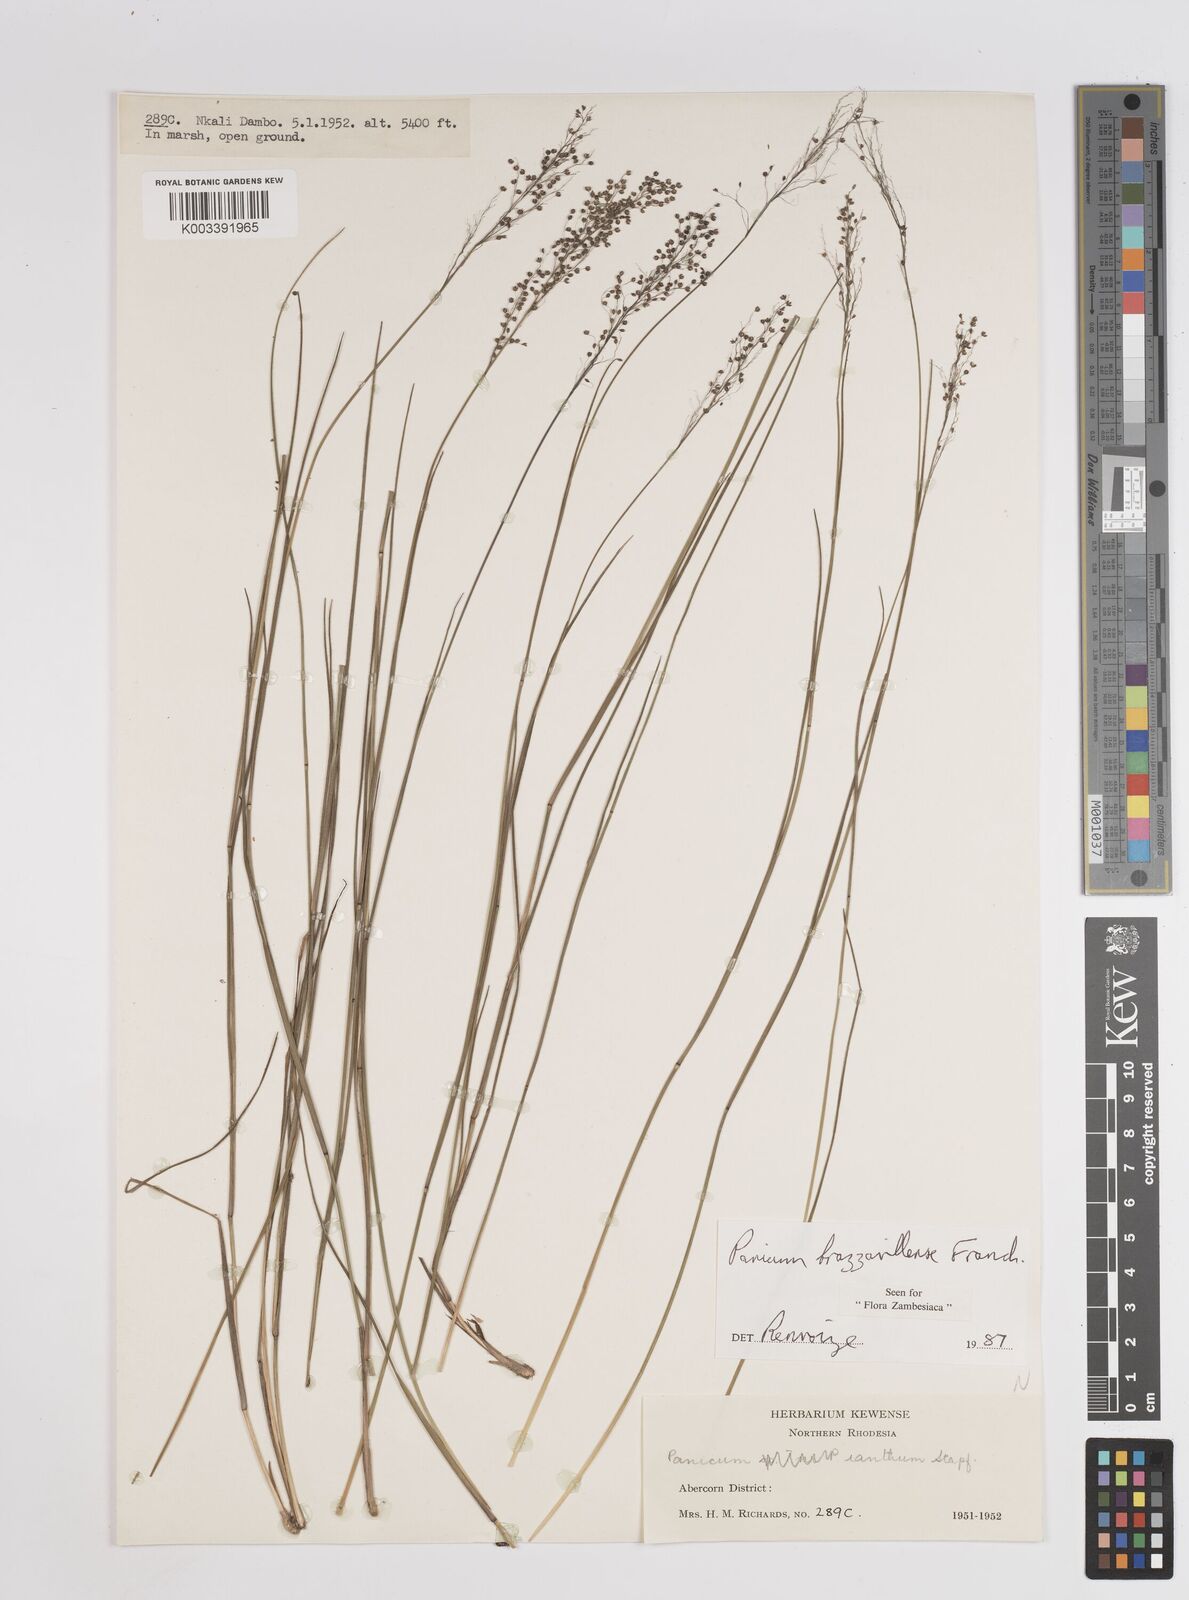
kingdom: Plantae
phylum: Tracheophyta
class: Liliopsida
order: Poales
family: Poaceae
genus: Trichanthecium
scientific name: Trichanthecium brazzavillense
